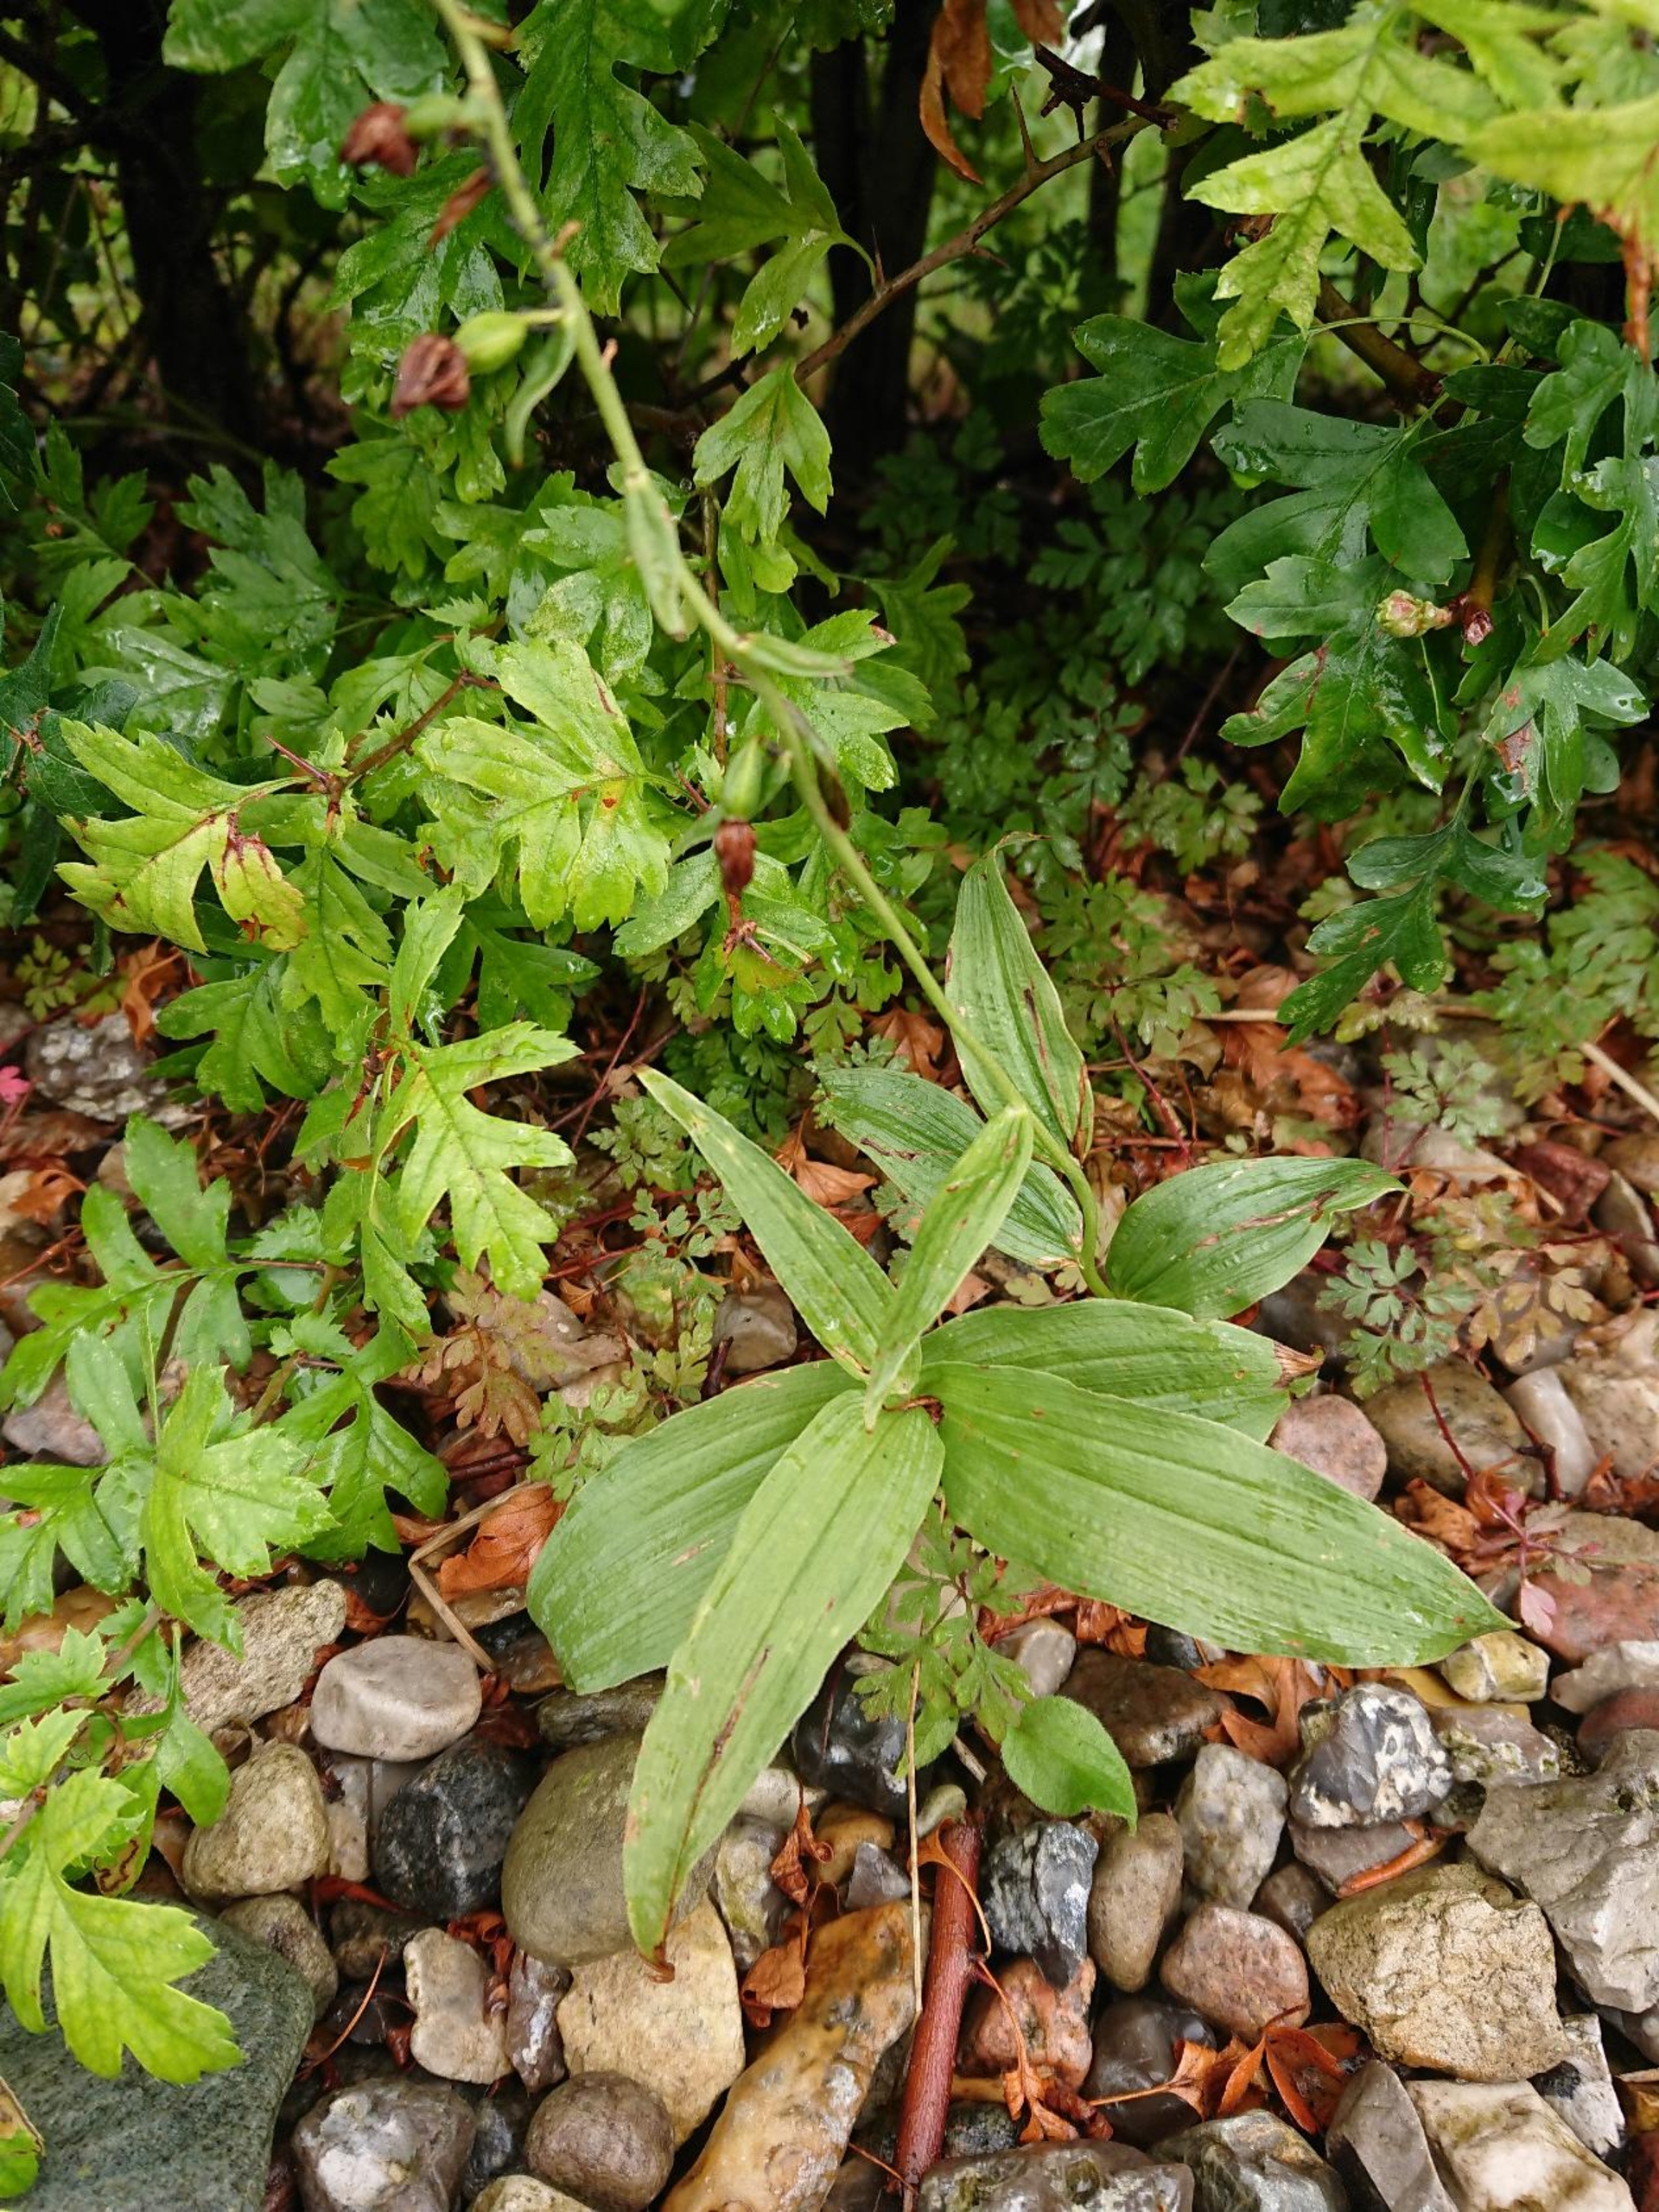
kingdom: Plantae
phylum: Tracheophyta
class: Liliopsida
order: Asparagales
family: Orchidaceae
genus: Epipactis
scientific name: Epipactis helleborine
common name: Skov-hullæbe
